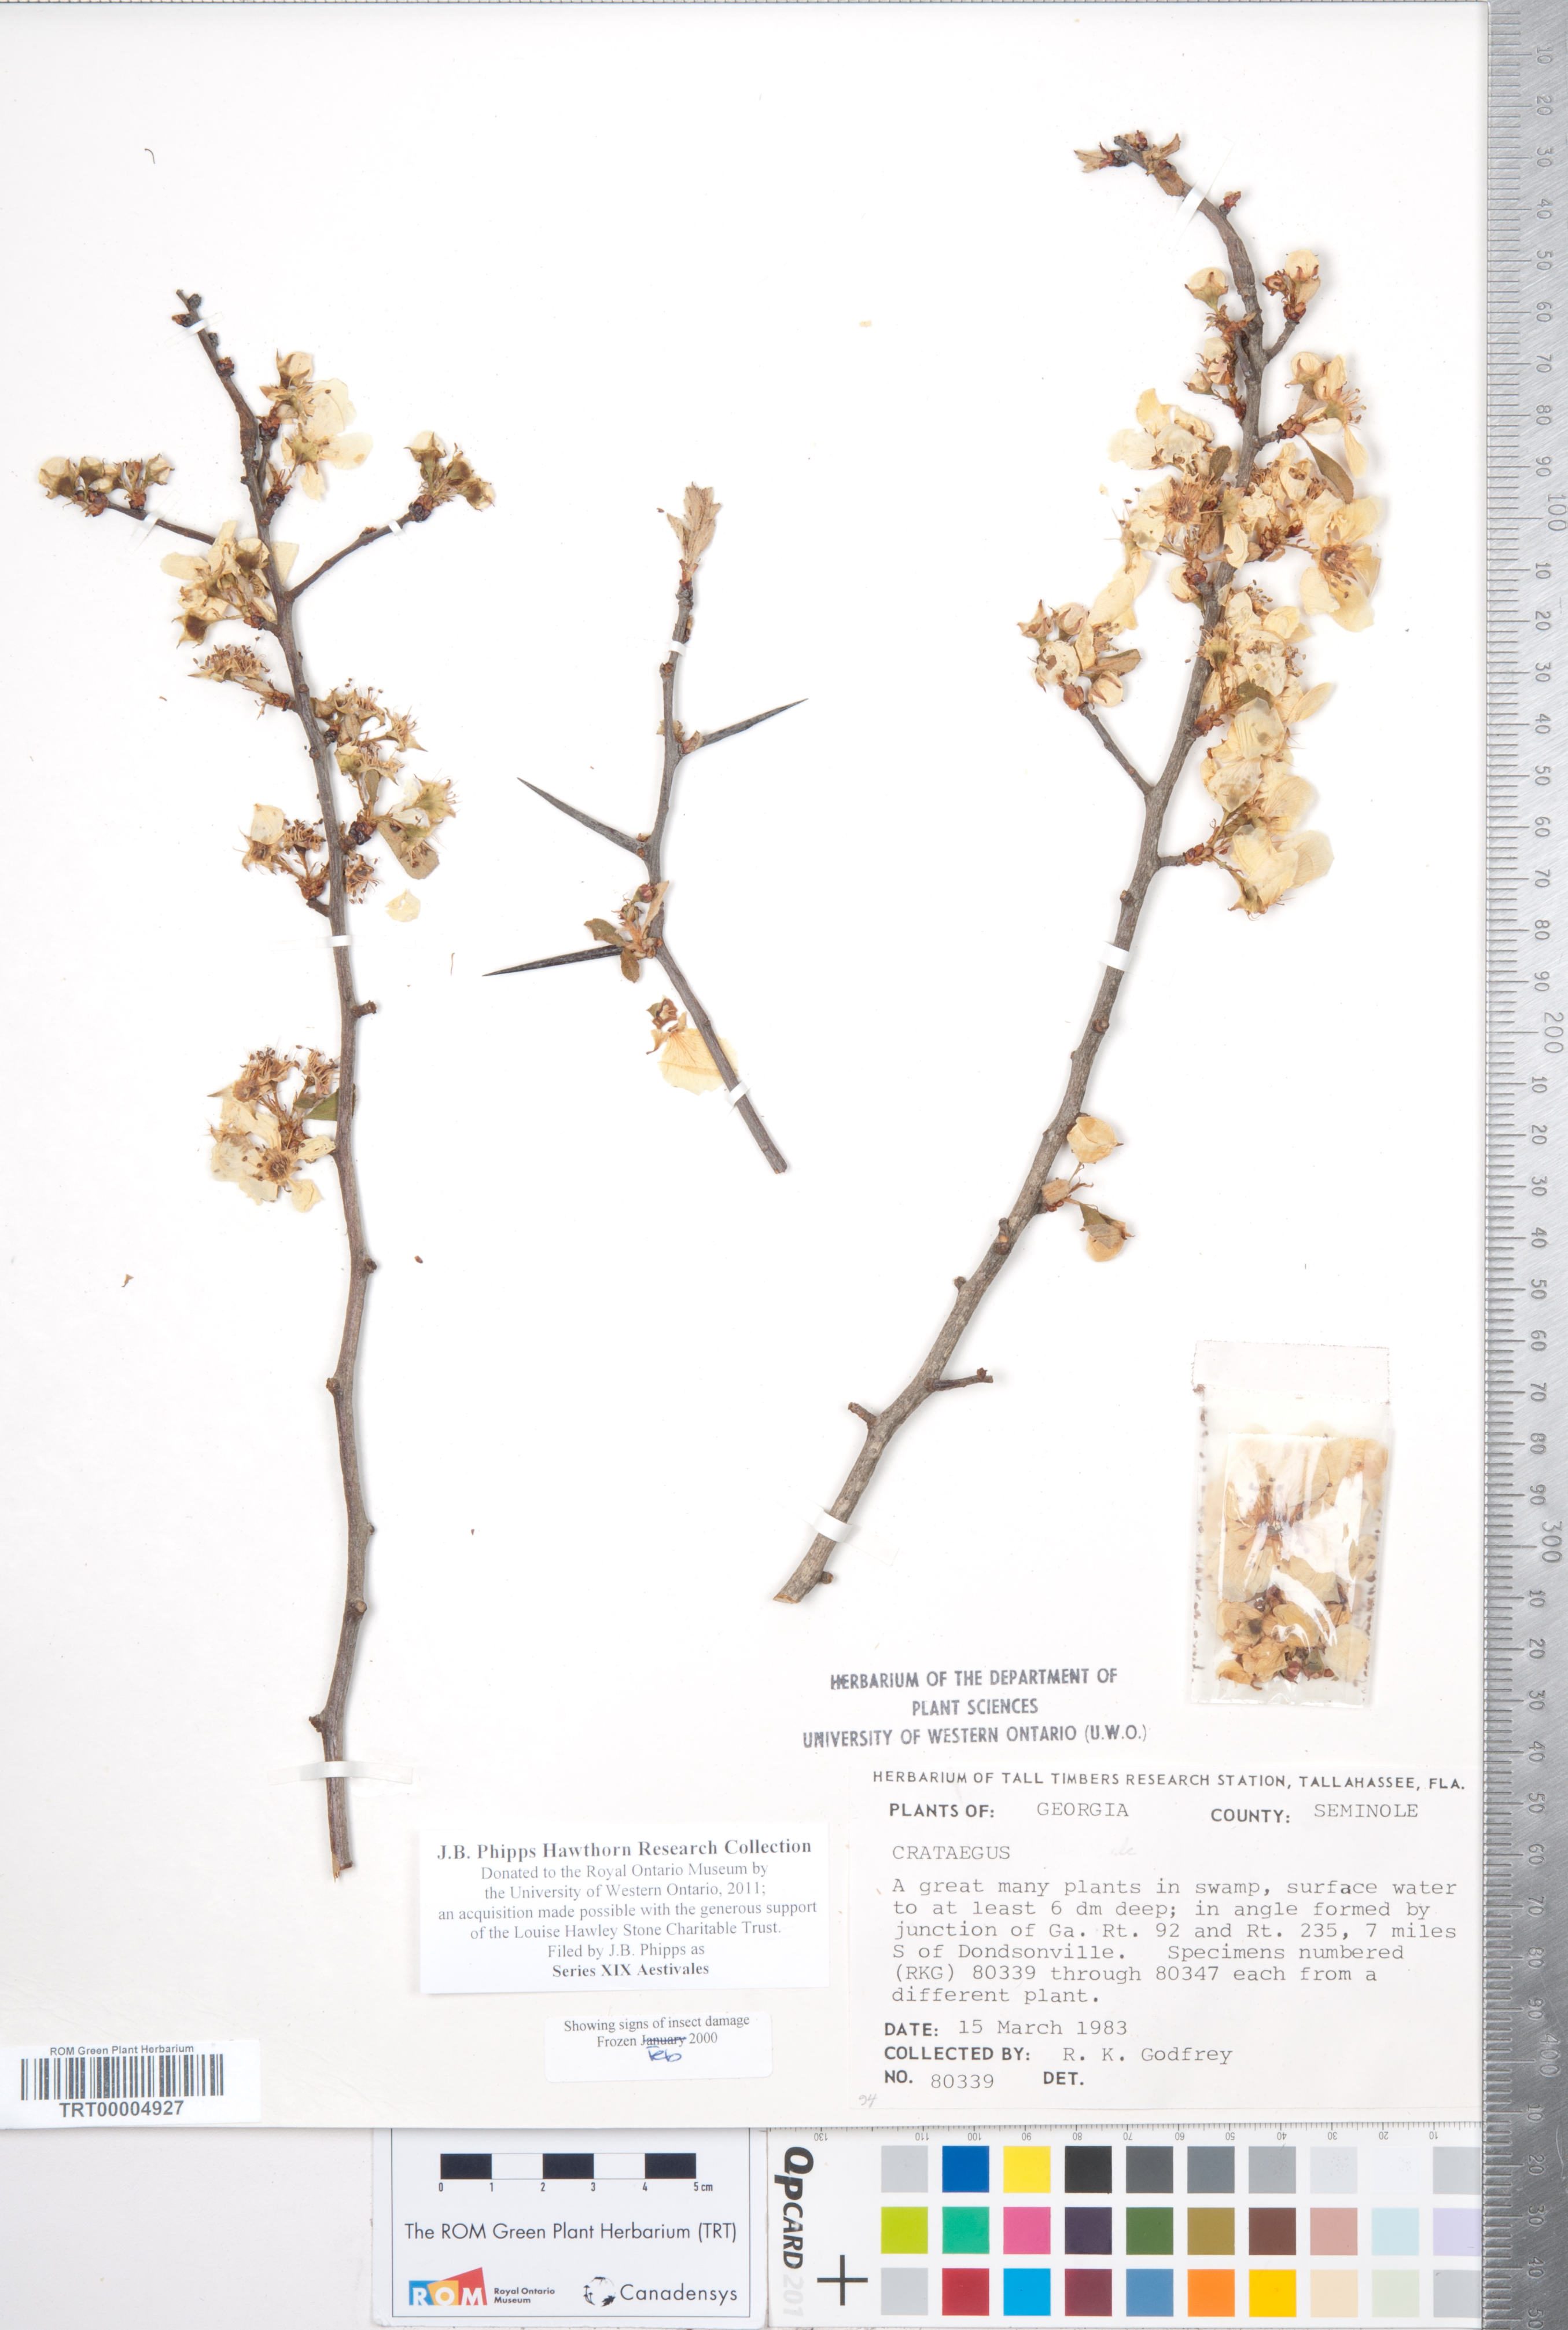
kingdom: Plantae
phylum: Tracheophyta
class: Magnoliopsida
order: Rosales
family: Rosaceae
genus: Crataegus
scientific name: Crataegus
